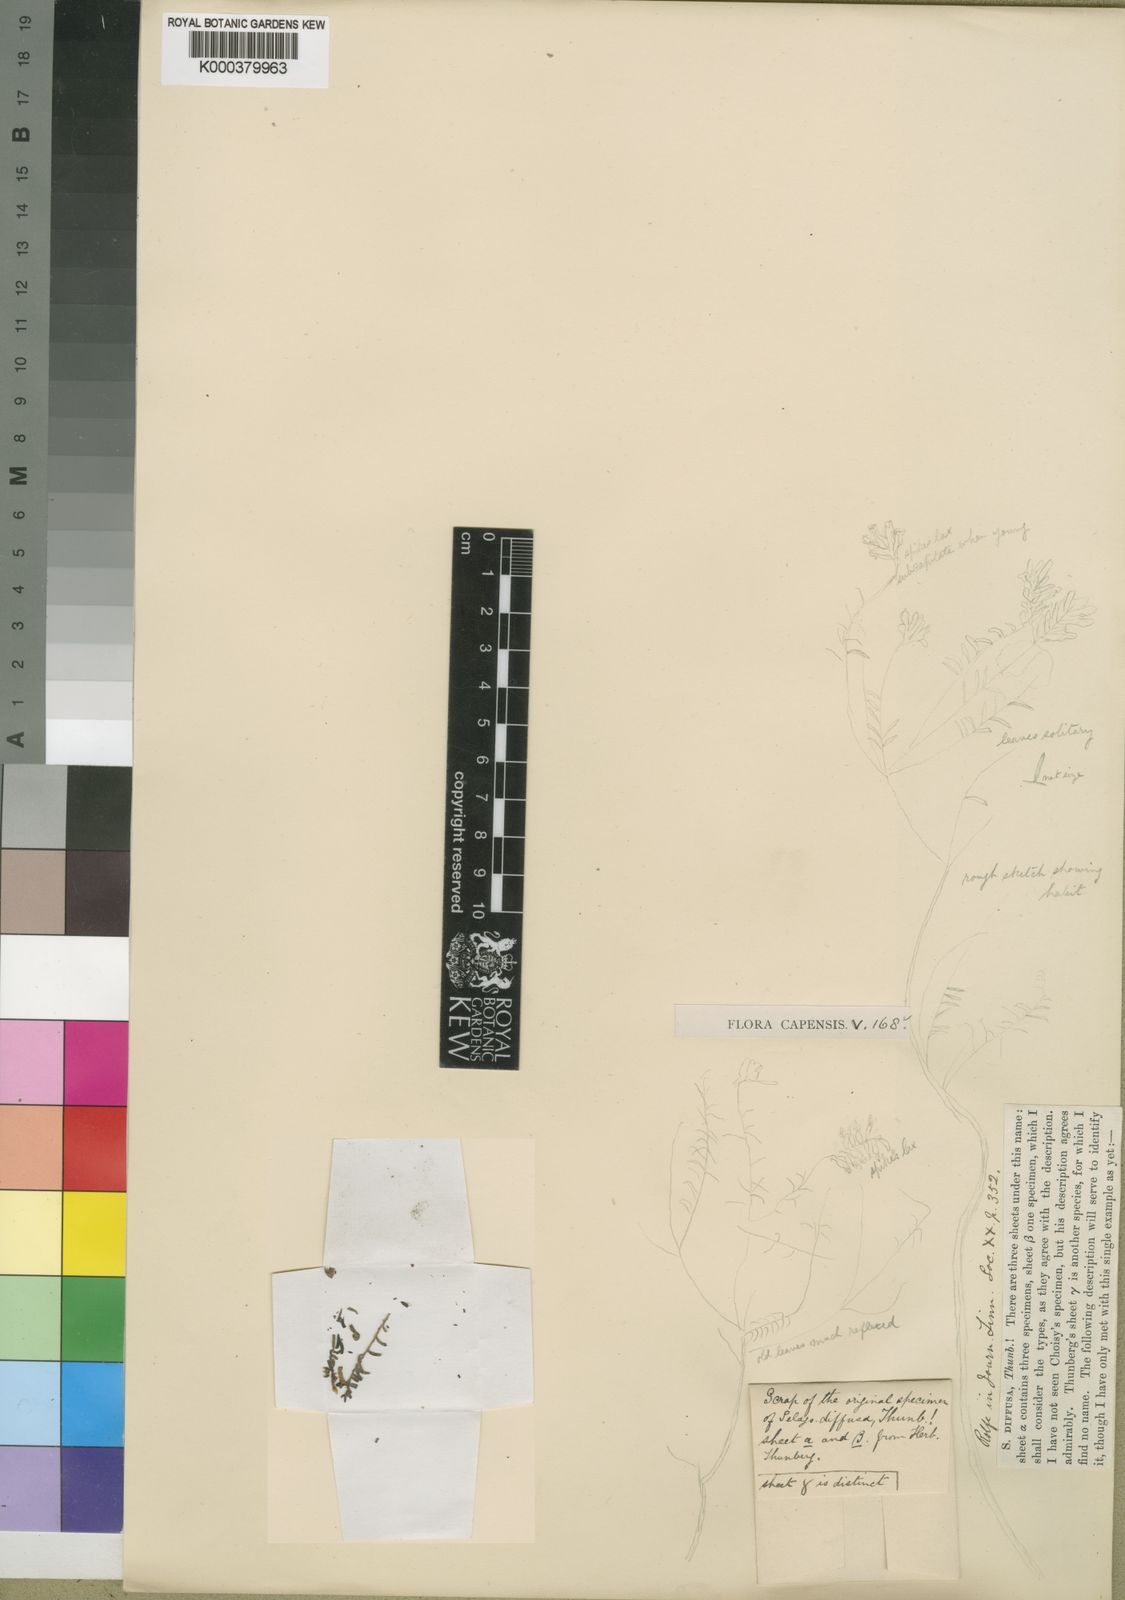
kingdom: Plantae
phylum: Tracheophyta
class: Magnoliopsida
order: Lamiales
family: Scrophulariaceae
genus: Selago
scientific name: Selago diffusa
